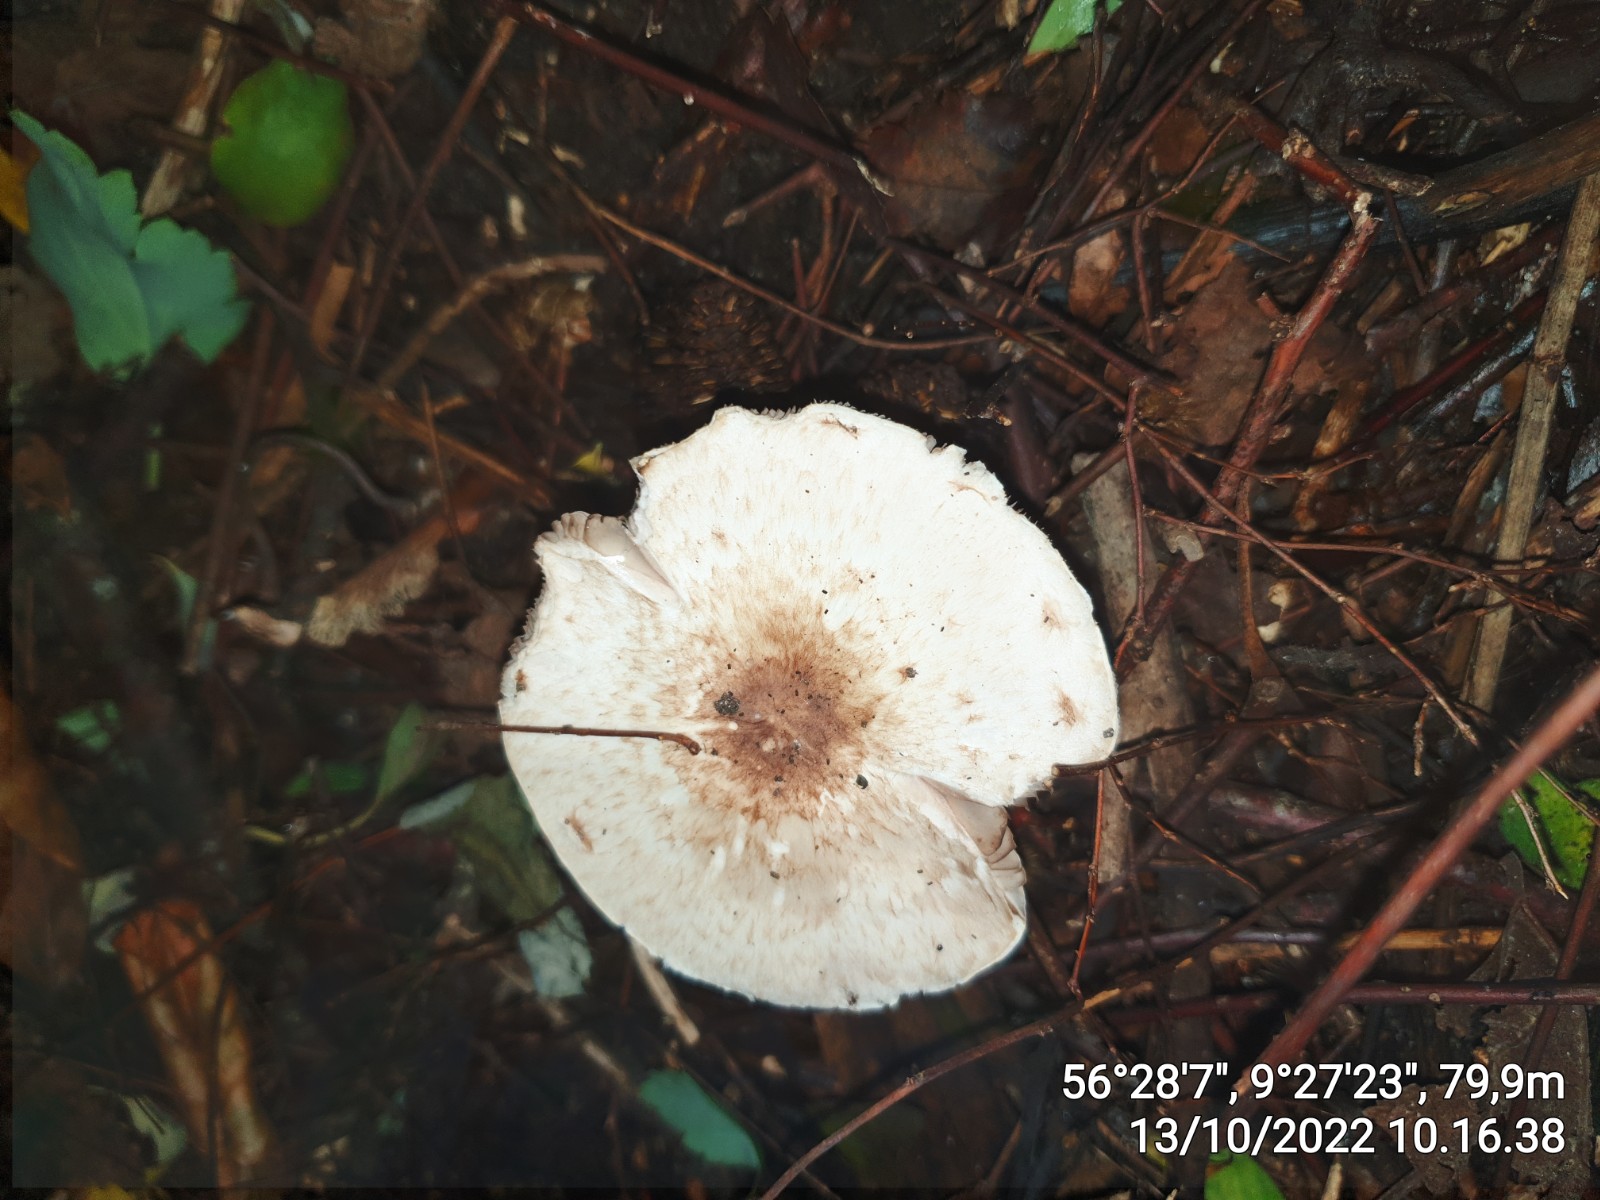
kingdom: Fungi
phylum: Basidiomycota
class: Agaricomycetes
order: Agaricales
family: Agaricaceae
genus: Agaricus
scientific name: Agaricus
